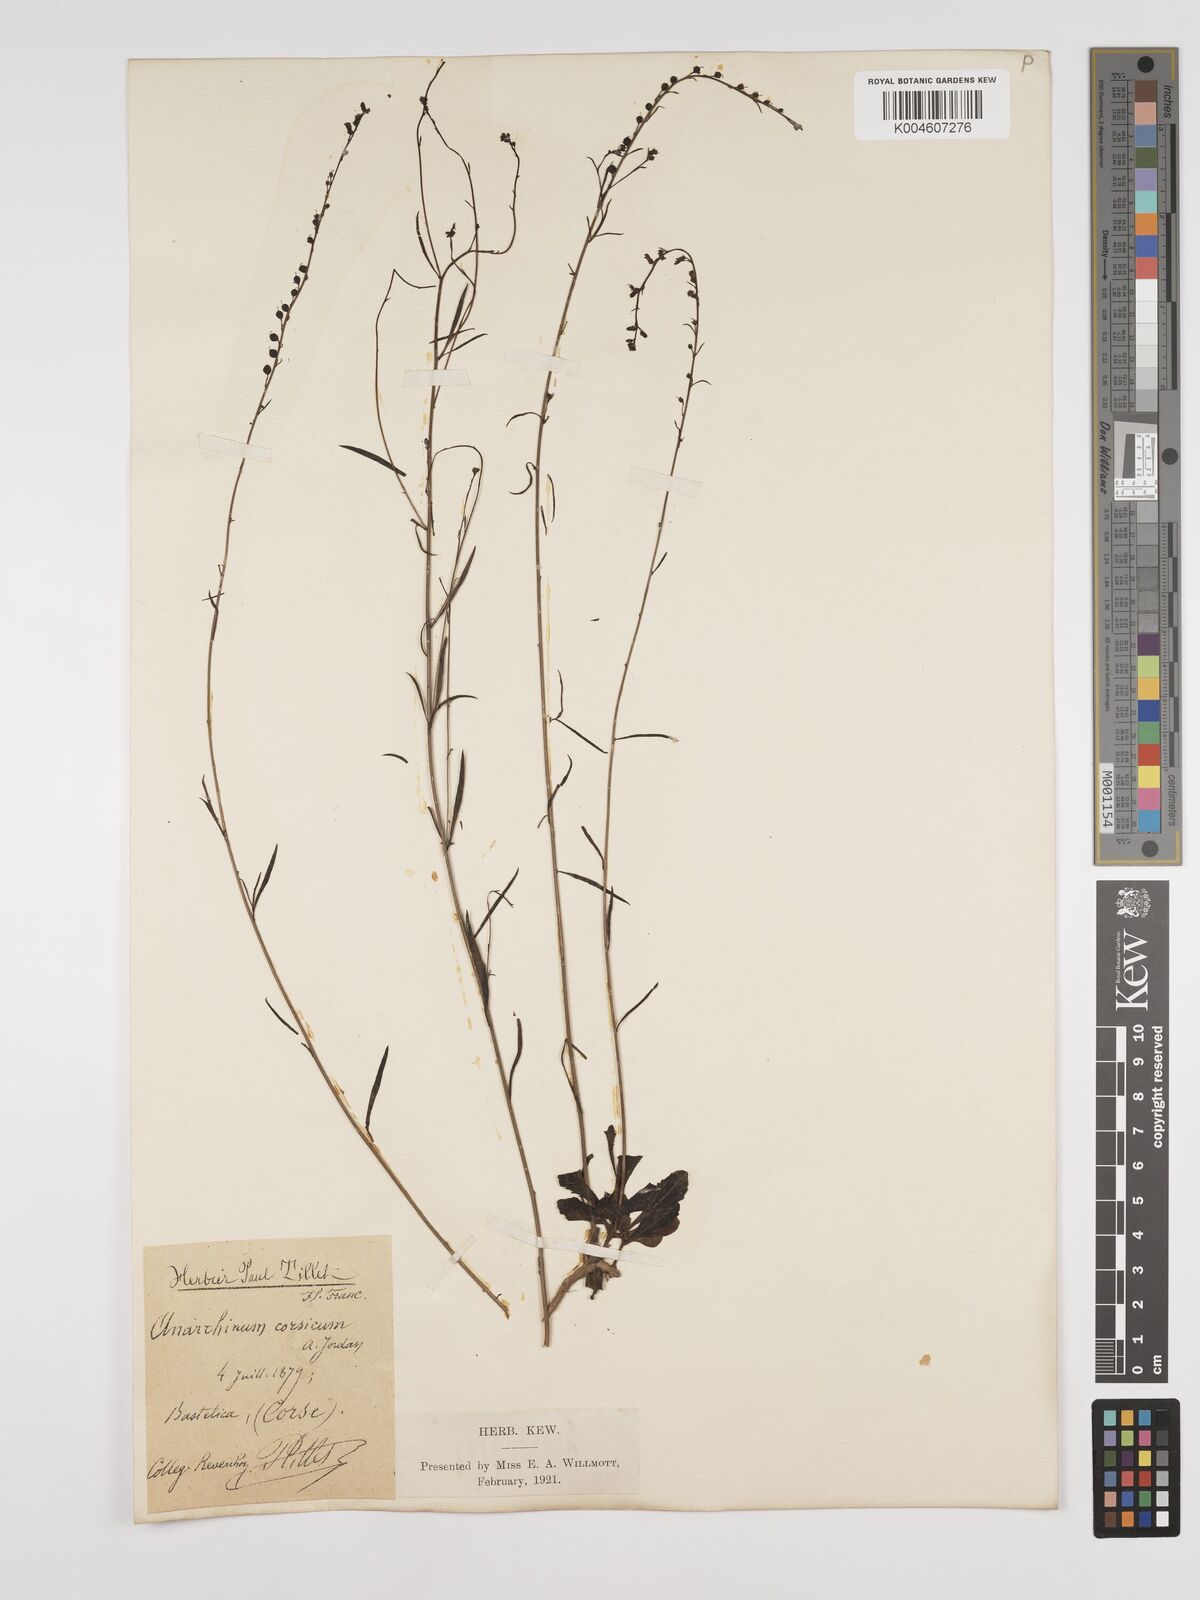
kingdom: Plantae
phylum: Tracheophyta
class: Magnoliopsida
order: Lamiales
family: Plantaginaceae
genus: Anarrhinum
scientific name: Anarrhinum corsicum
